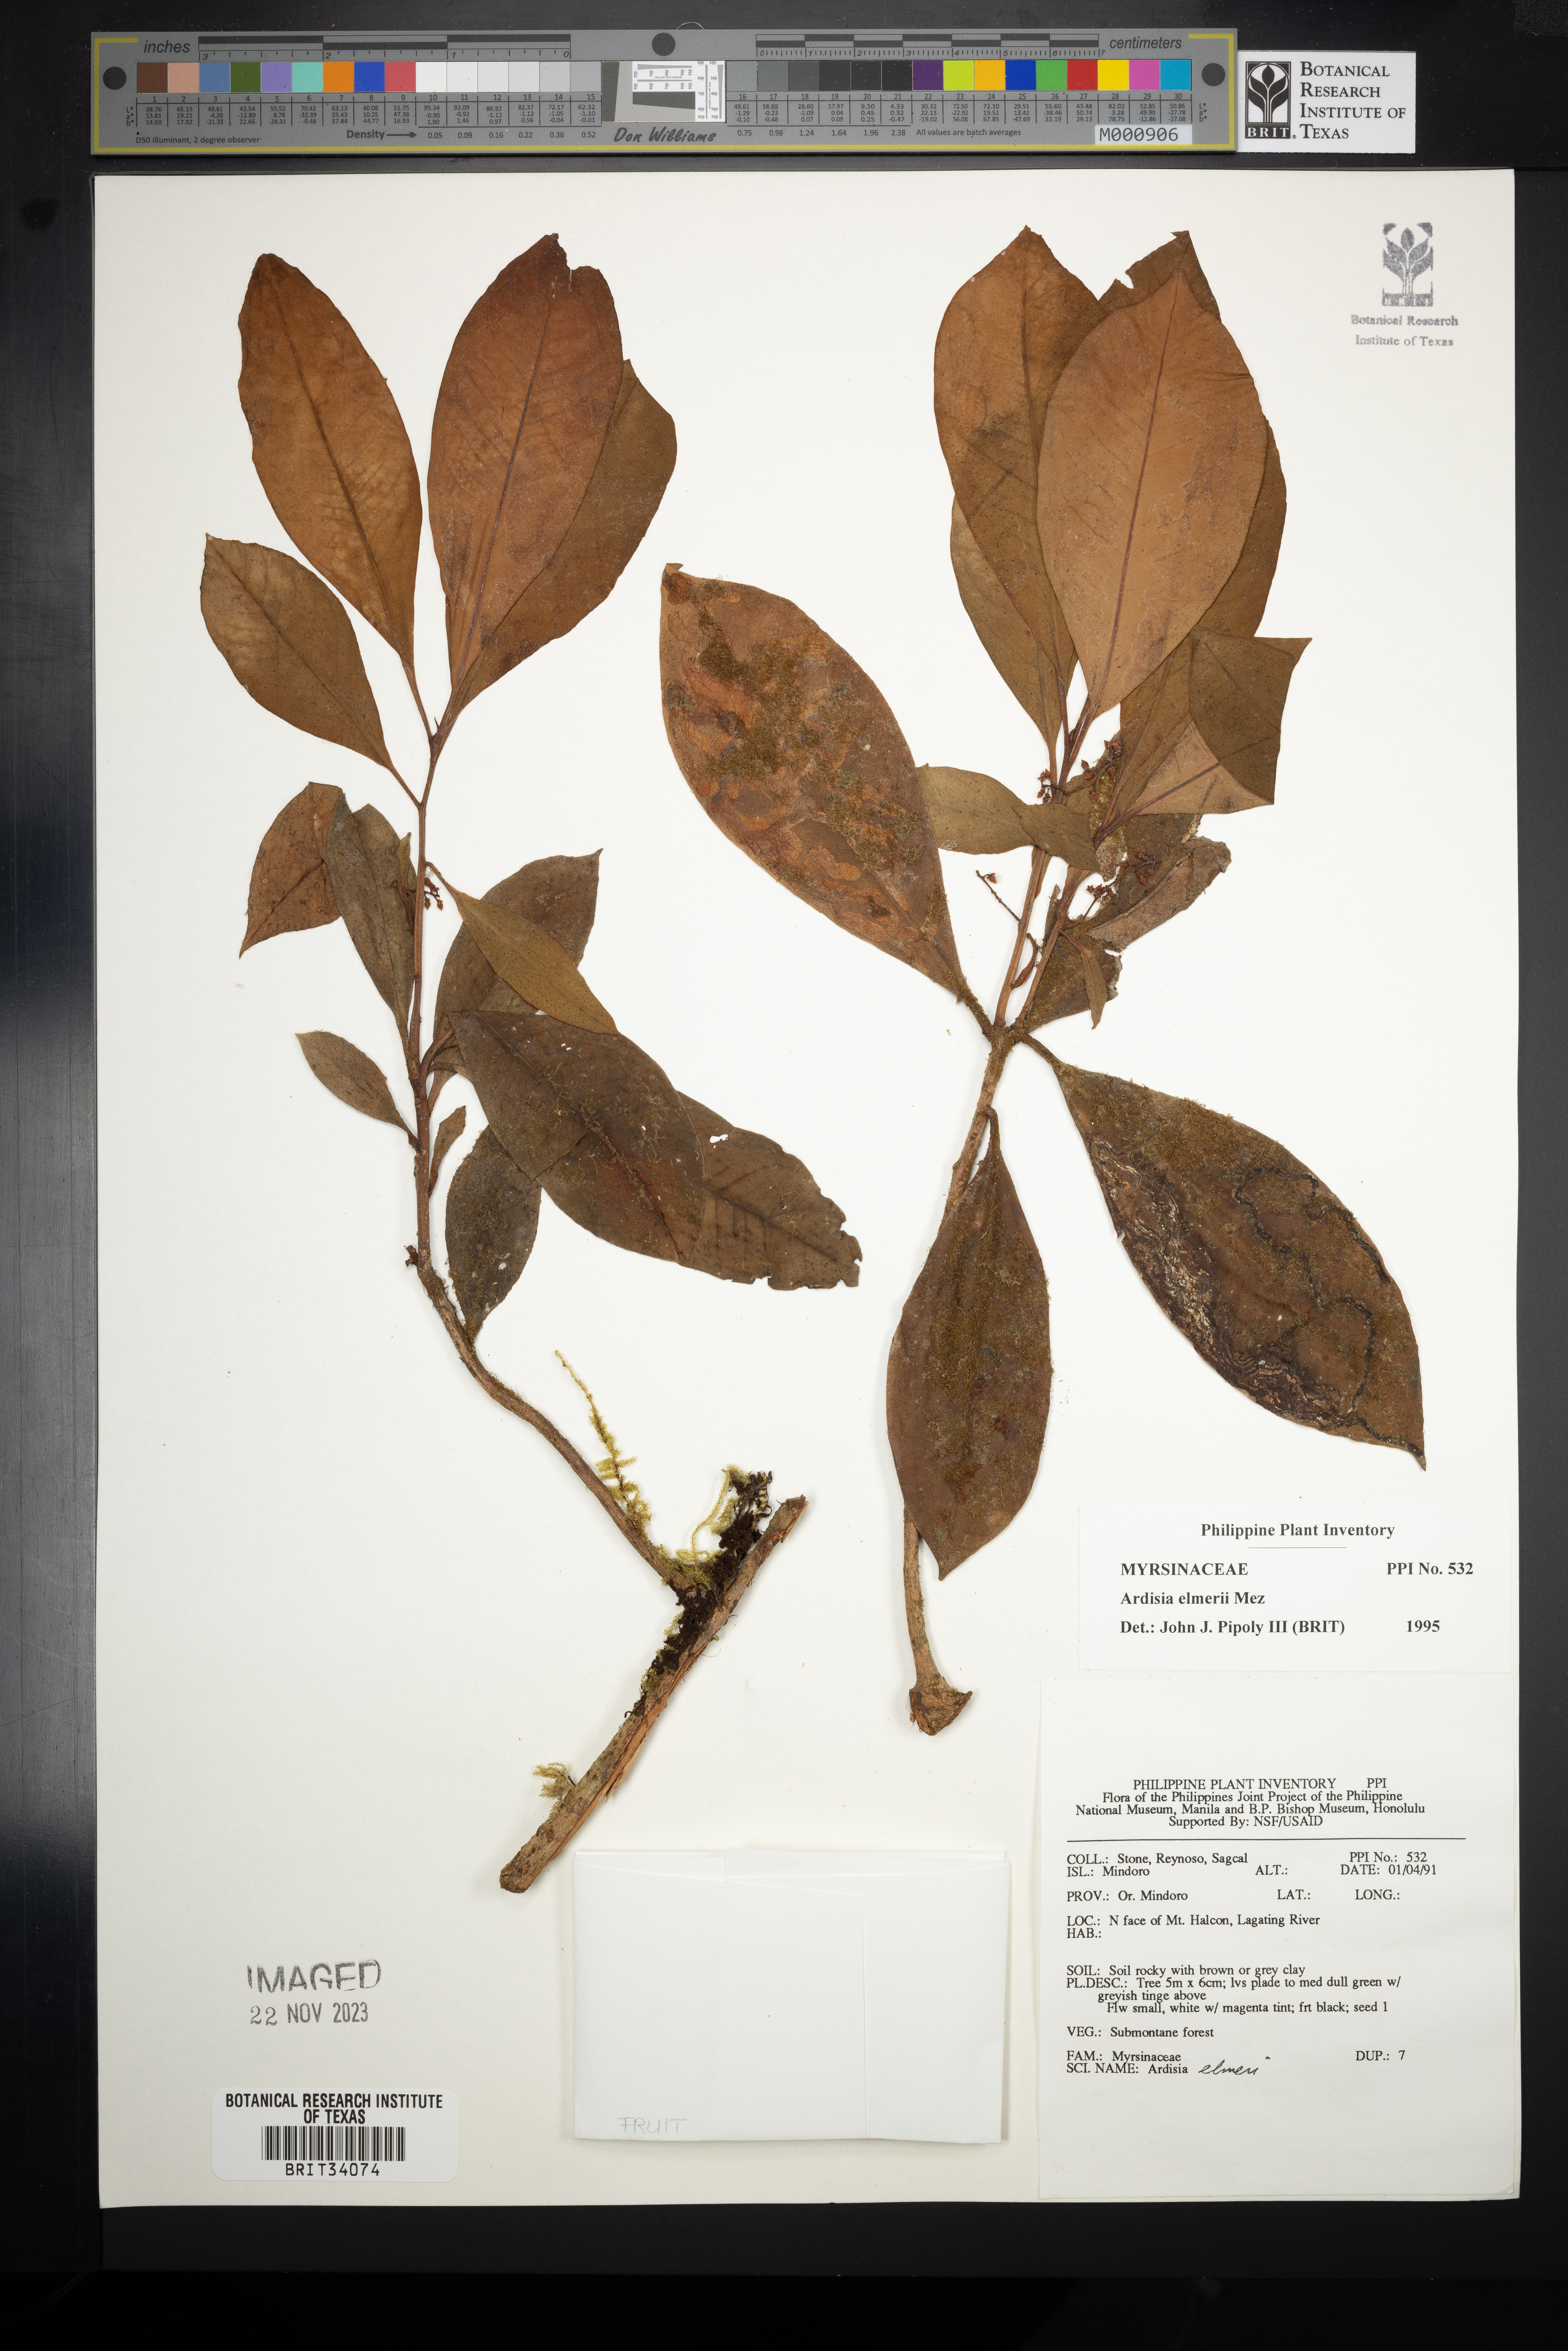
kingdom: Plantae
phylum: Tracheophyta
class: Magnoliopsida
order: Ericales
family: Primulaceae
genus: Ardisia
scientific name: Ardisia elmeri
